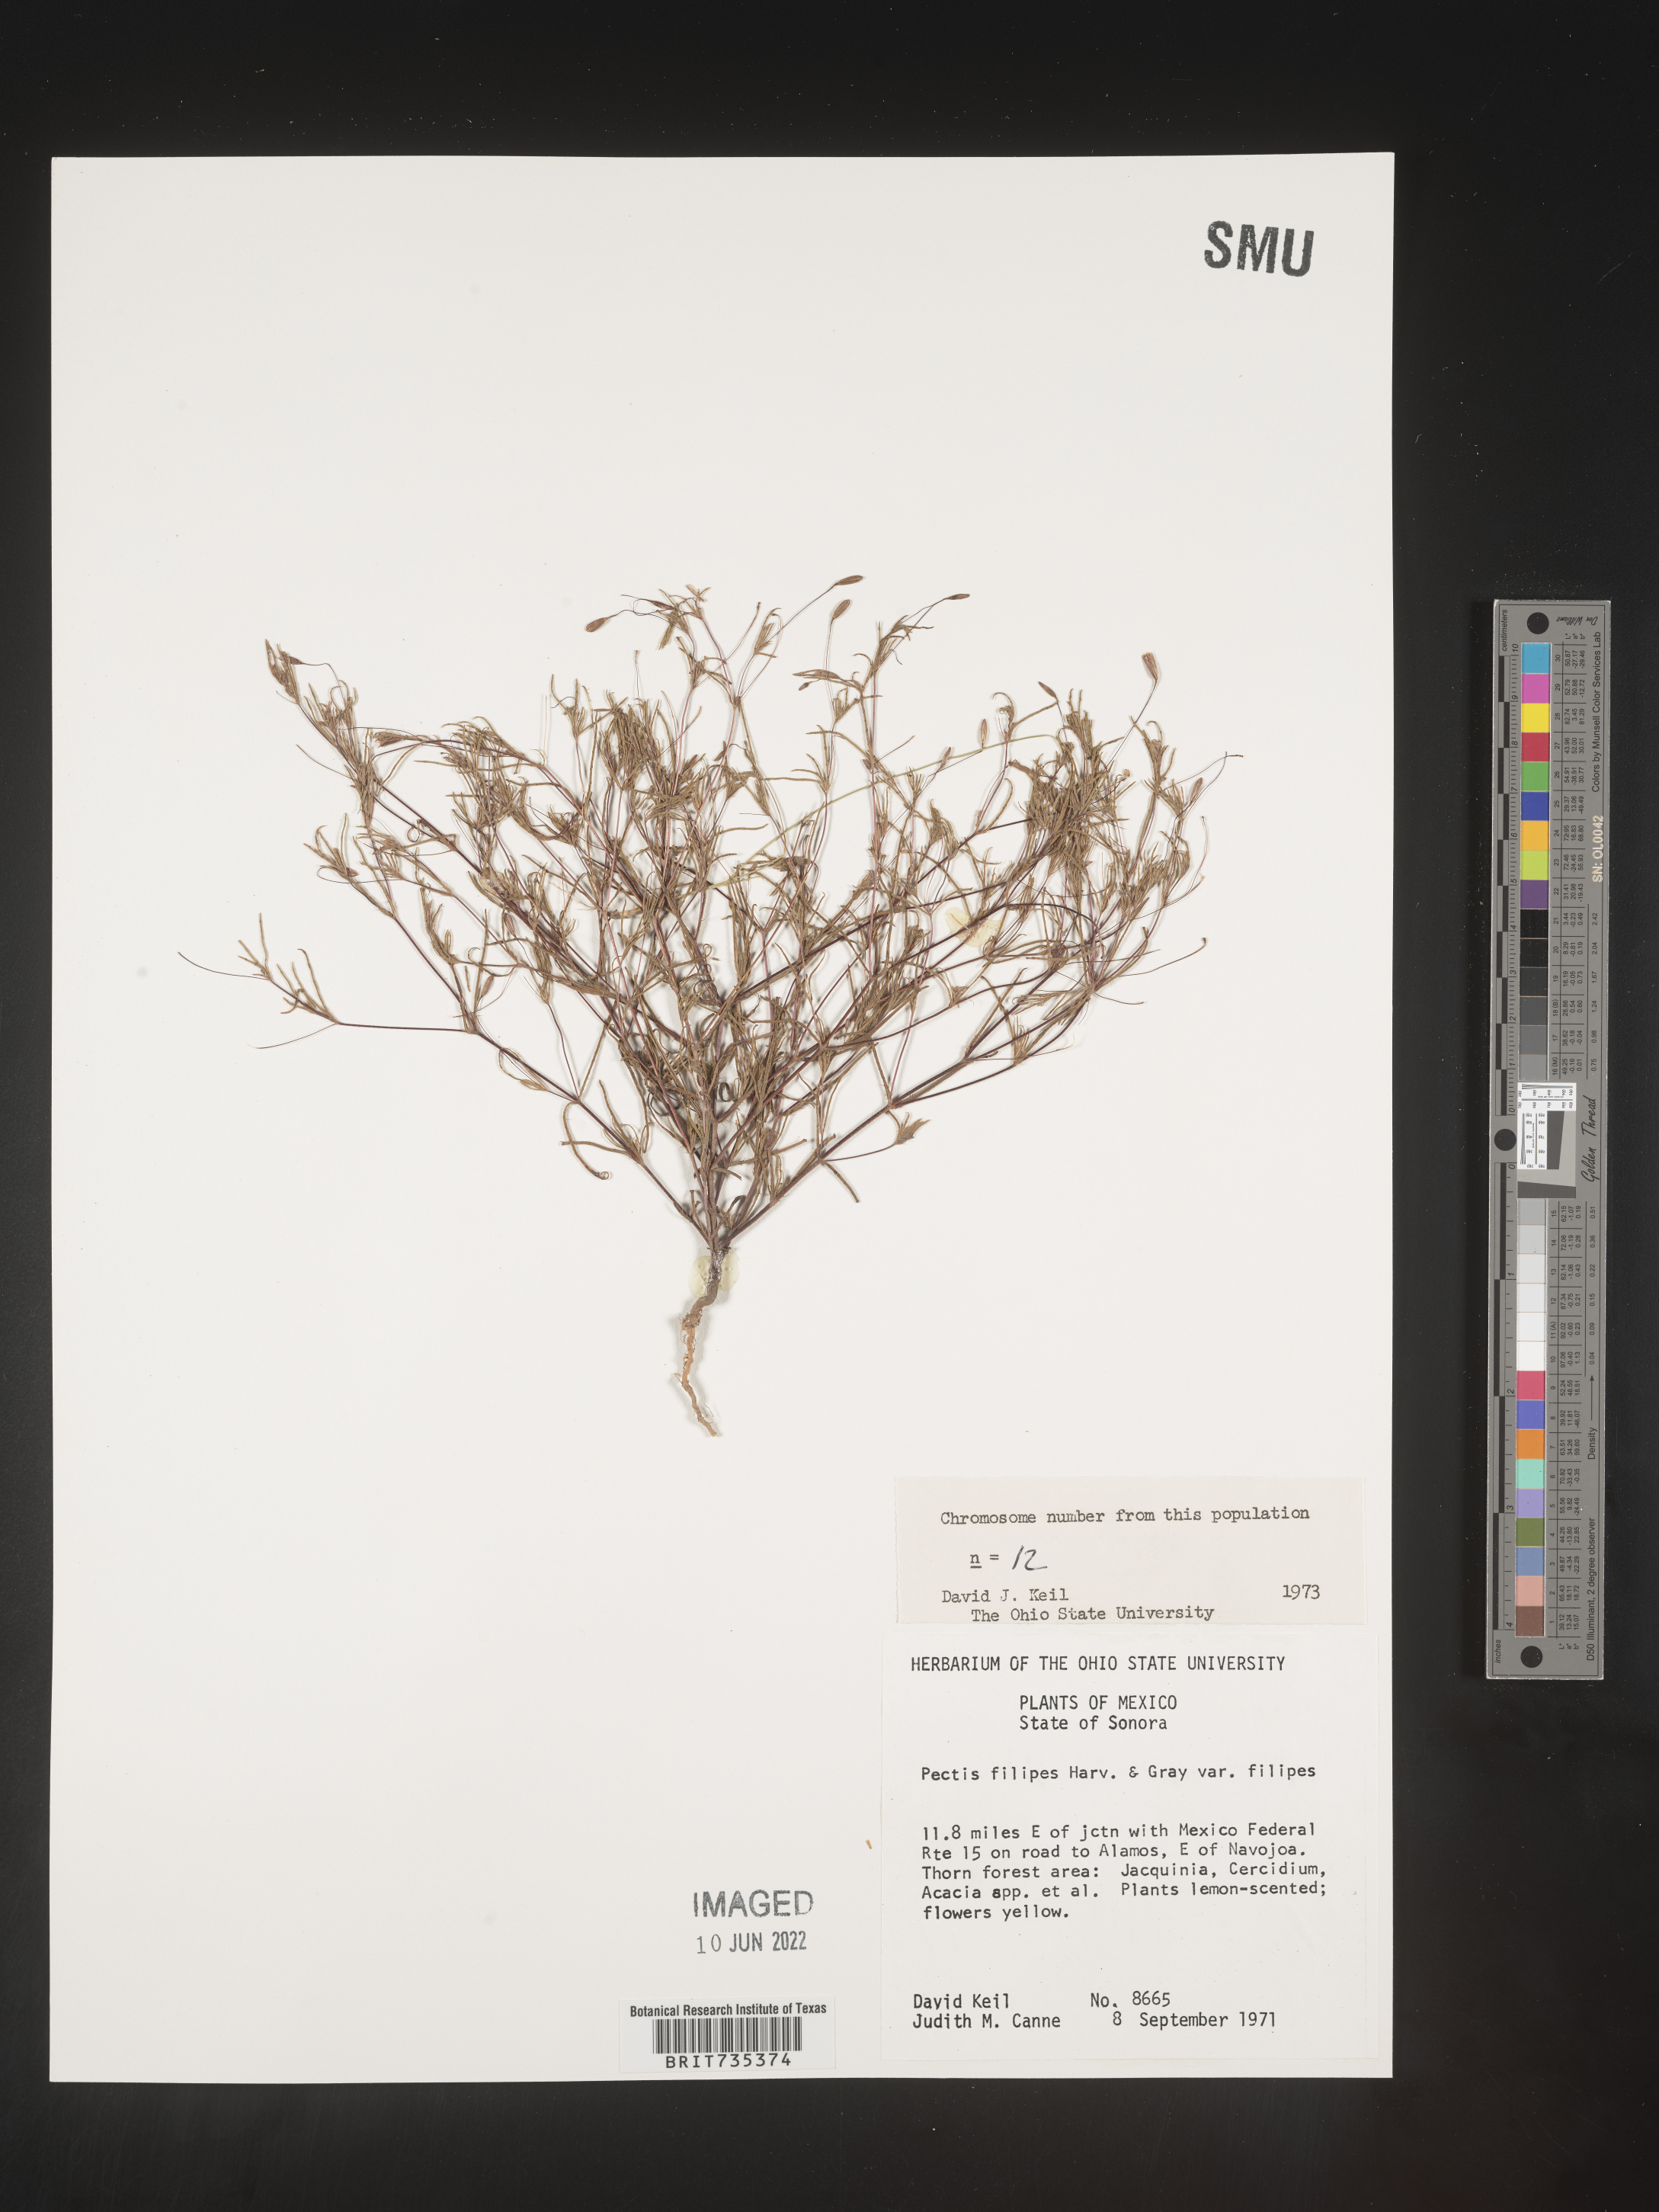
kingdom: Plantae
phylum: Tracheophyta
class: Magnoliopsida
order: Asterales
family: Asteraceae
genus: Pectis
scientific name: Pectis
